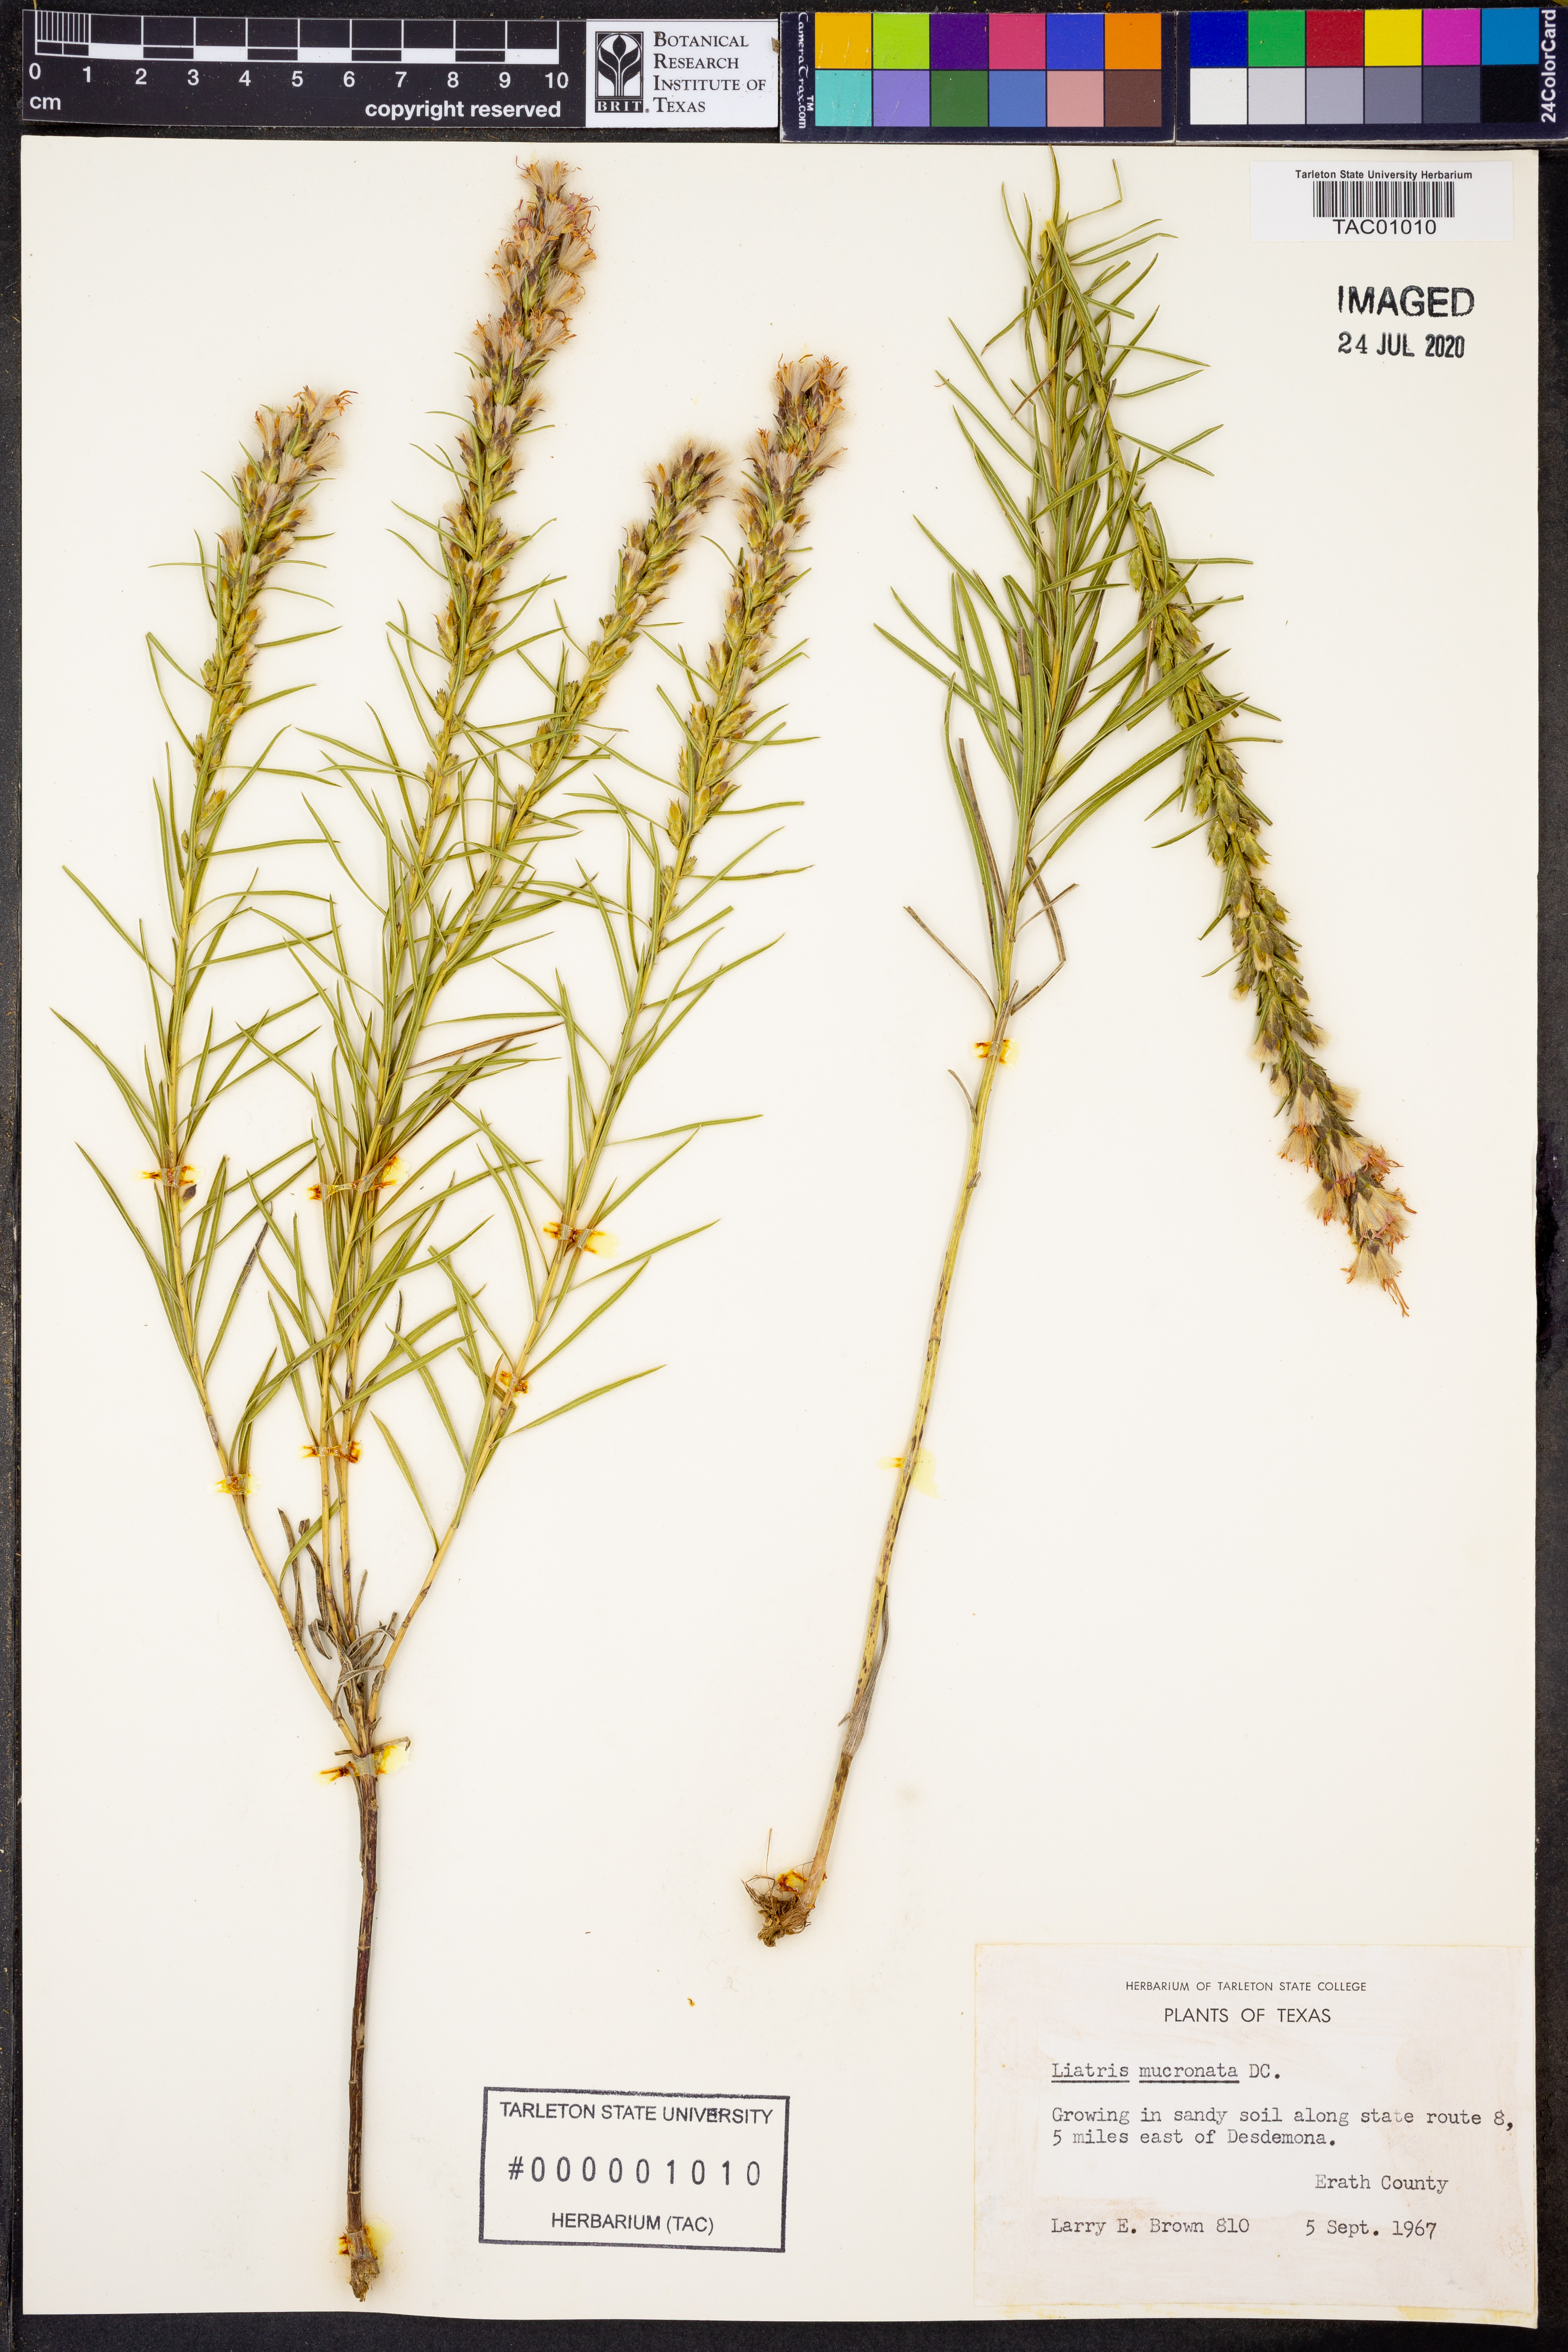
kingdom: Plantae
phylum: Tracheophyta
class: Magnoliopsida
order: Asterales
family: Asteraceae
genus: Liatris
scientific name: Liatris mucronata
